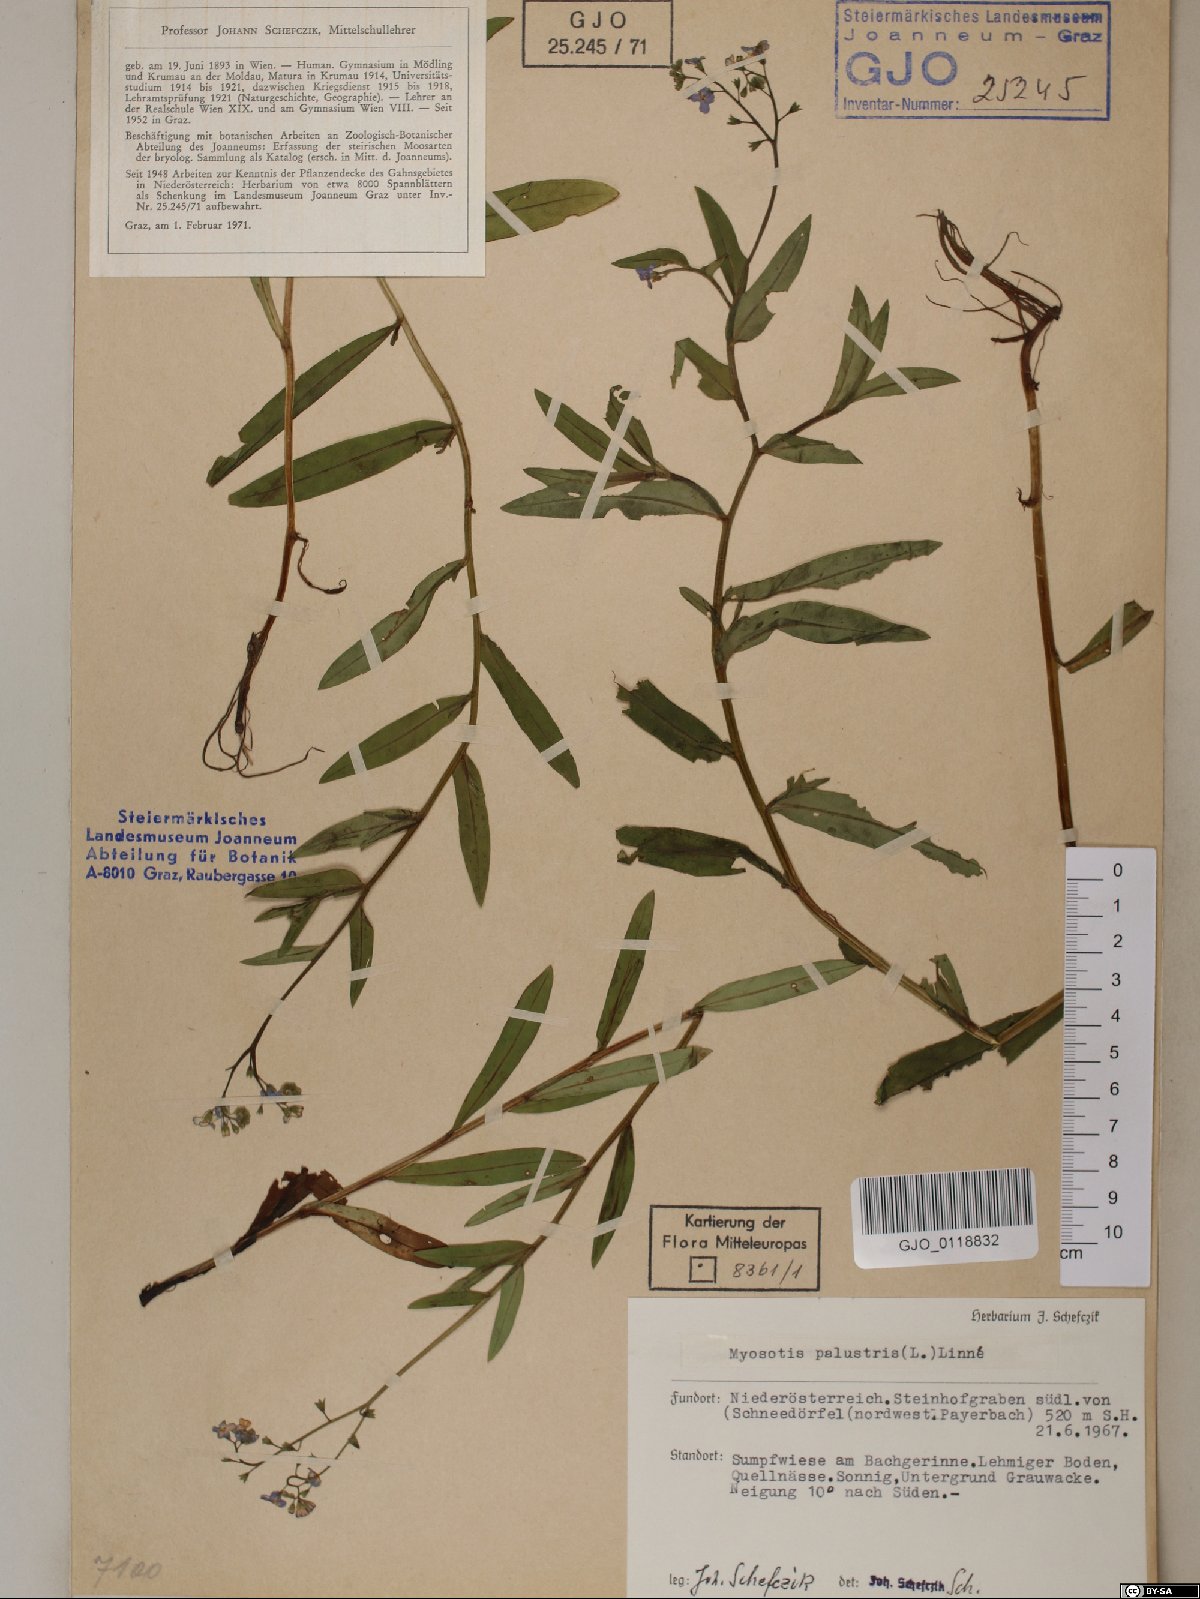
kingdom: Plantae
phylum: Tracheophyta
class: Magnoliopsida
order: Boraginales
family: Boraginaceae
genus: Myosotis
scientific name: Myosotis scorpioides
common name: Water forget-me-not
